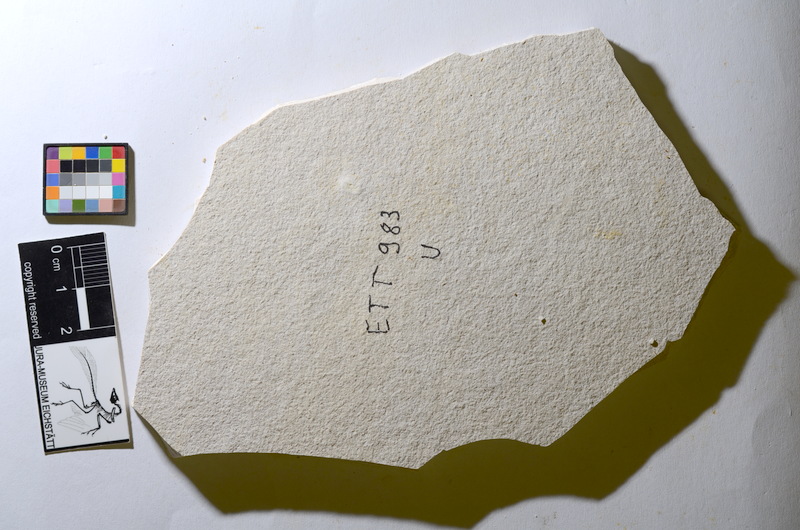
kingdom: Animalia
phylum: Chordata
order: Salmoniformes
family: Orthogonikleithridae
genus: Orthogonikleithrus
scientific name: Orthogonikleithrus hoelli
